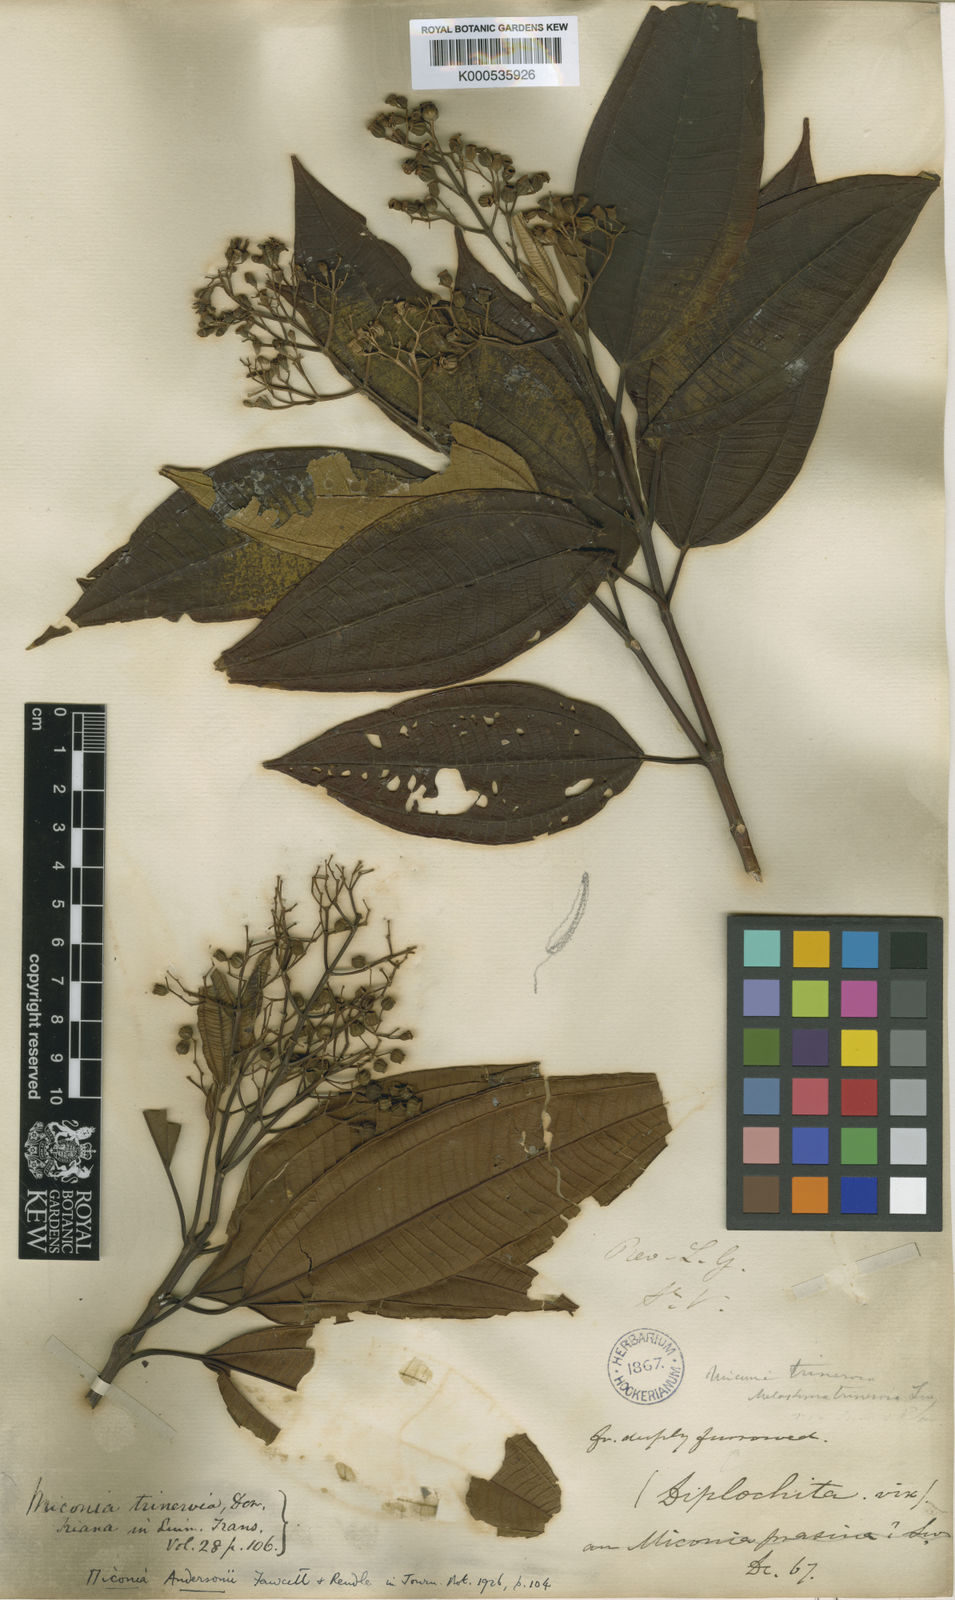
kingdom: Plantae
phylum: Tracheophyta
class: Magnoliopsida
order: Myrtales
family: Melastomataceae
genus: Miconia
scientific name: Miconia andersonii
